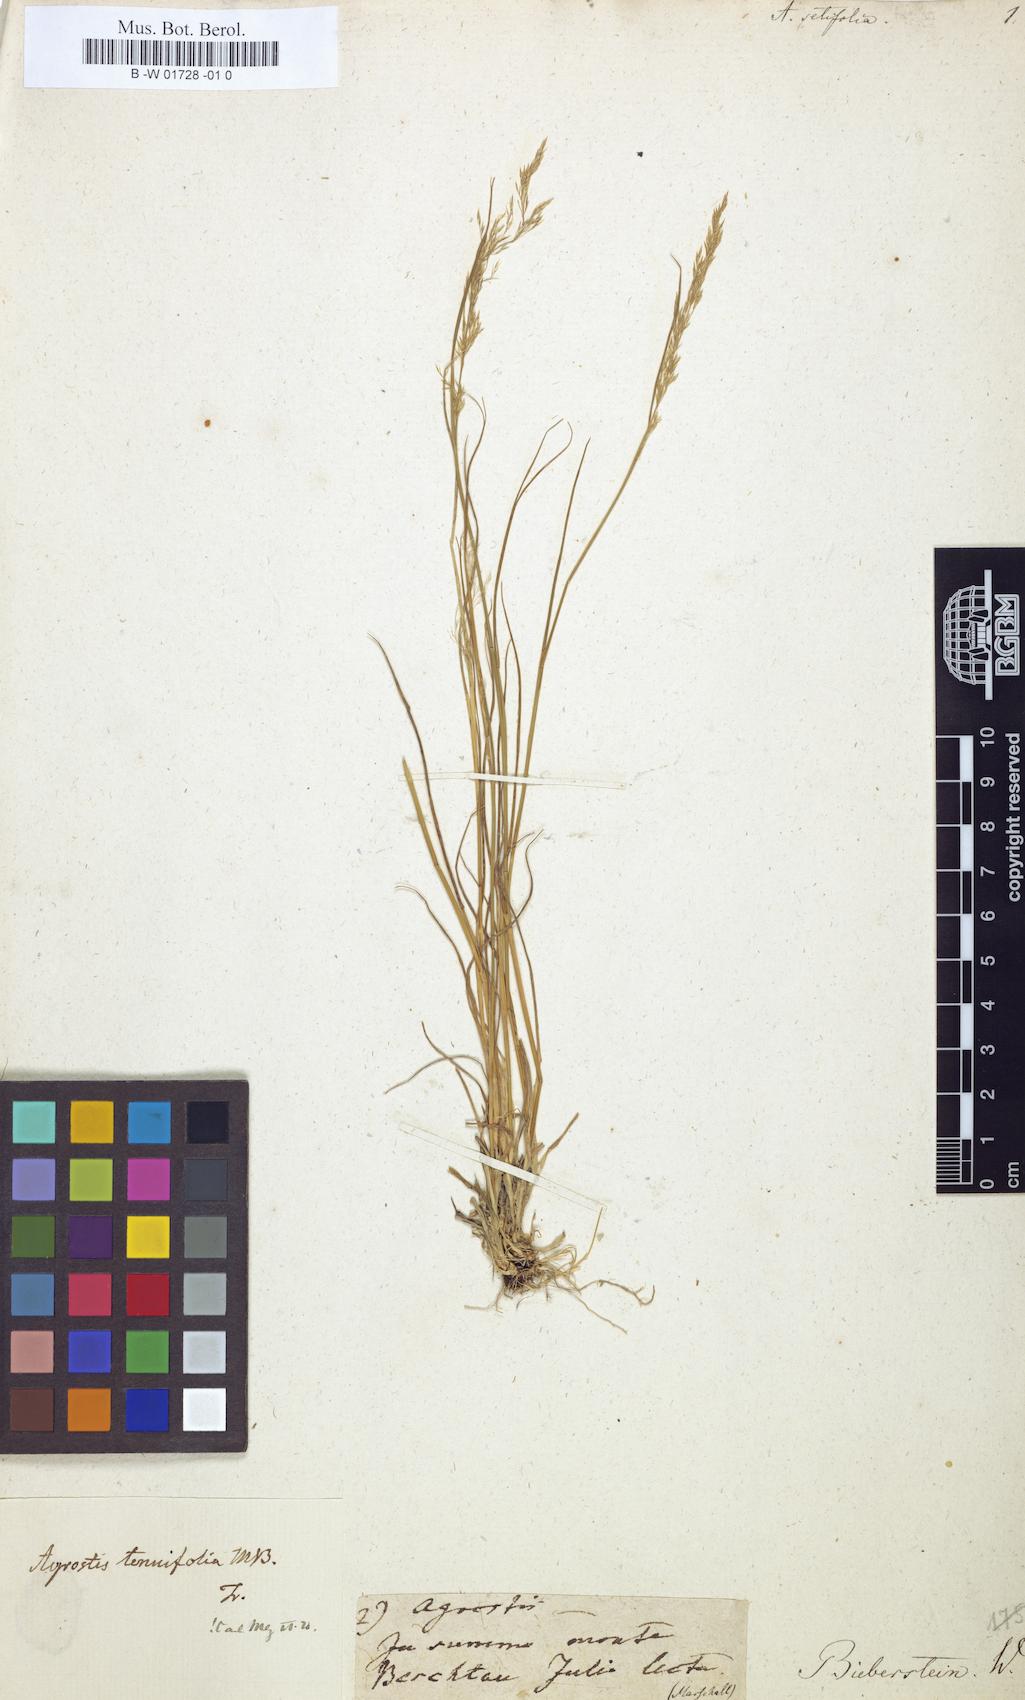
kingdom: Plantae
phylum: Tracheophyta
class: Liliopsida
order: Poales
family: Poaceae
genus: Agrostis
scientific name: Agrostis
